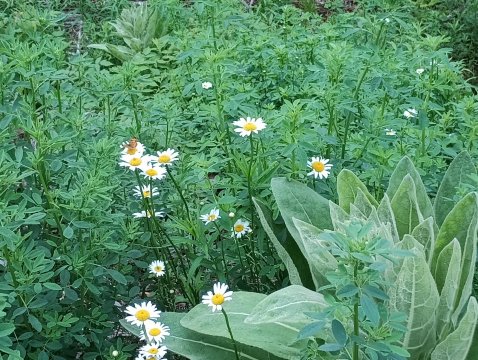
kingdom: Animalia
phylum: Arthropoda
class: Insecta
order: Lepidoptera
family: Nymphalidae
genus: Chlosyne
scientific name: Chlosyne harrisii
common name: Harris's Checkerspot
